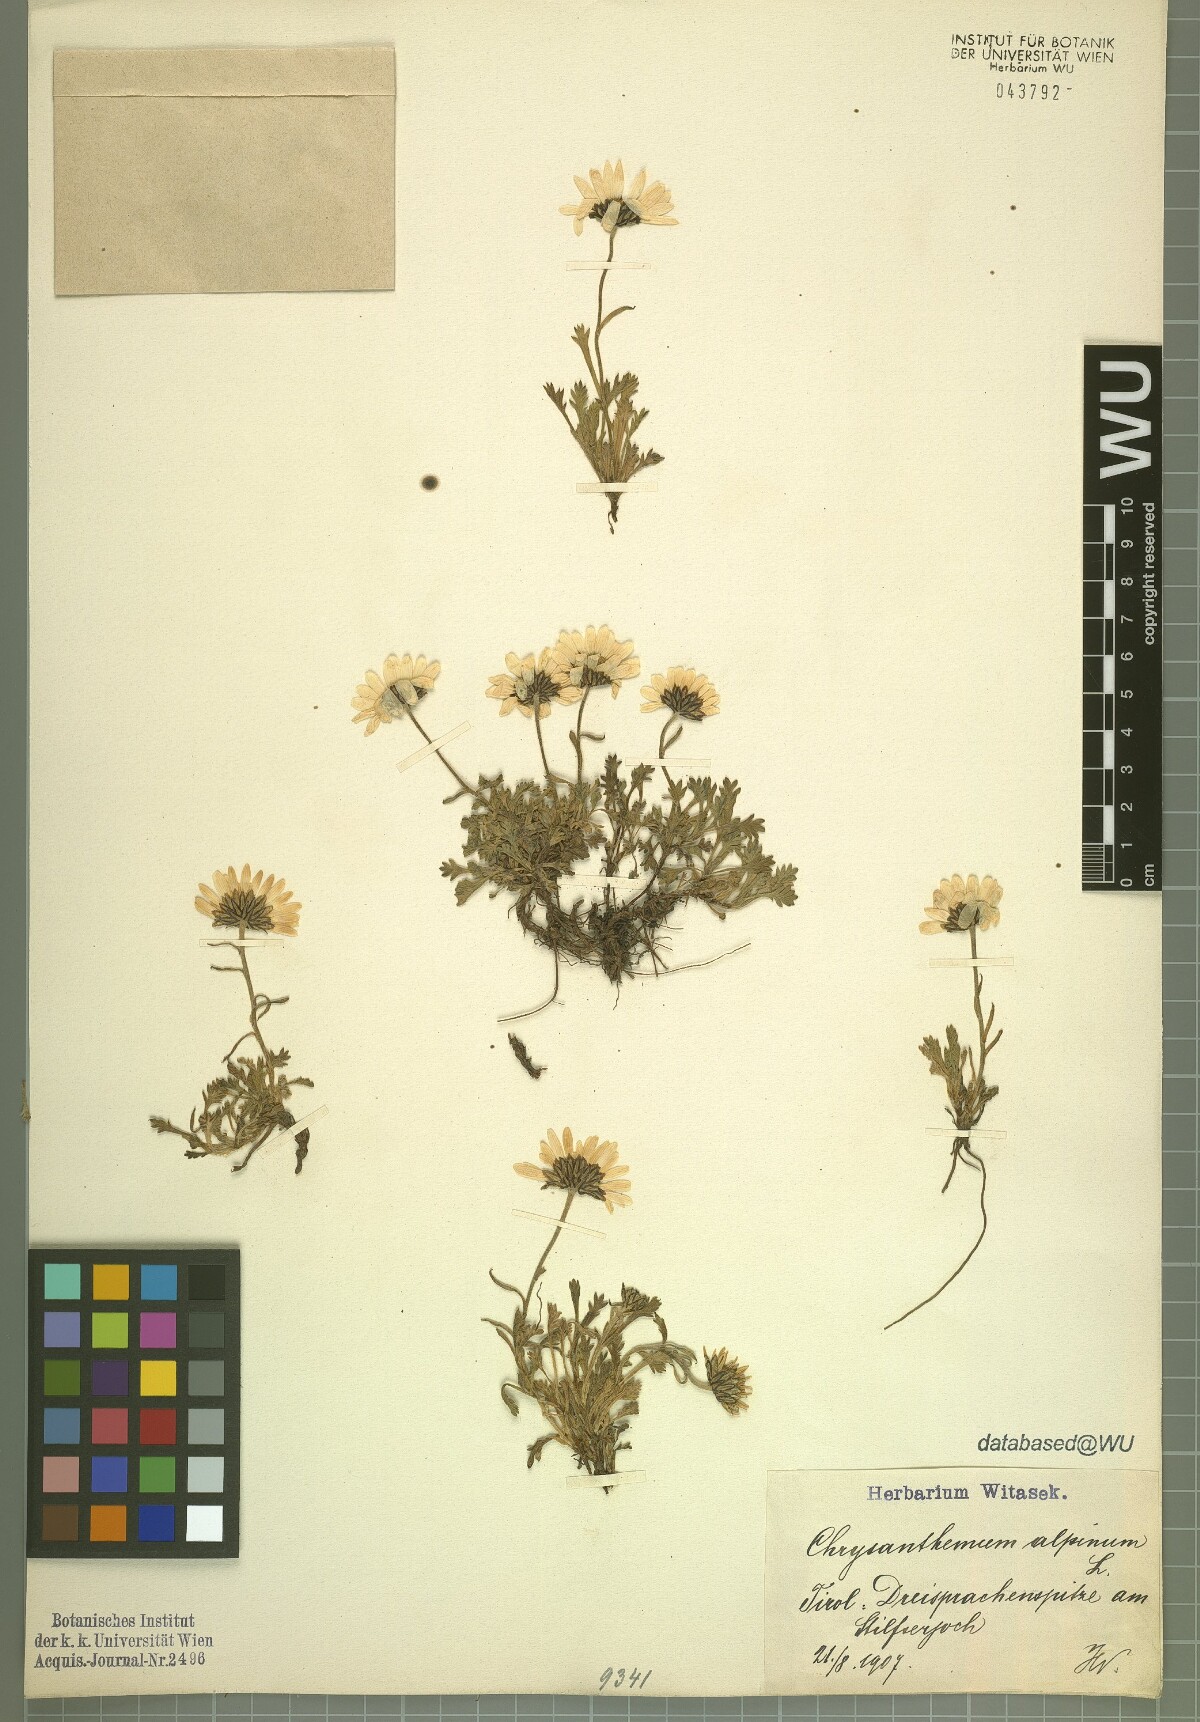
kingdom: Plantae
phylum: Tracheophyta
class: Magnoliopsida
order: Asterales
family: Asteraceae
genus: Leucanthemopsis
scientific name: Leucanthemopsis alpina
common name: Alpine moon daisy
